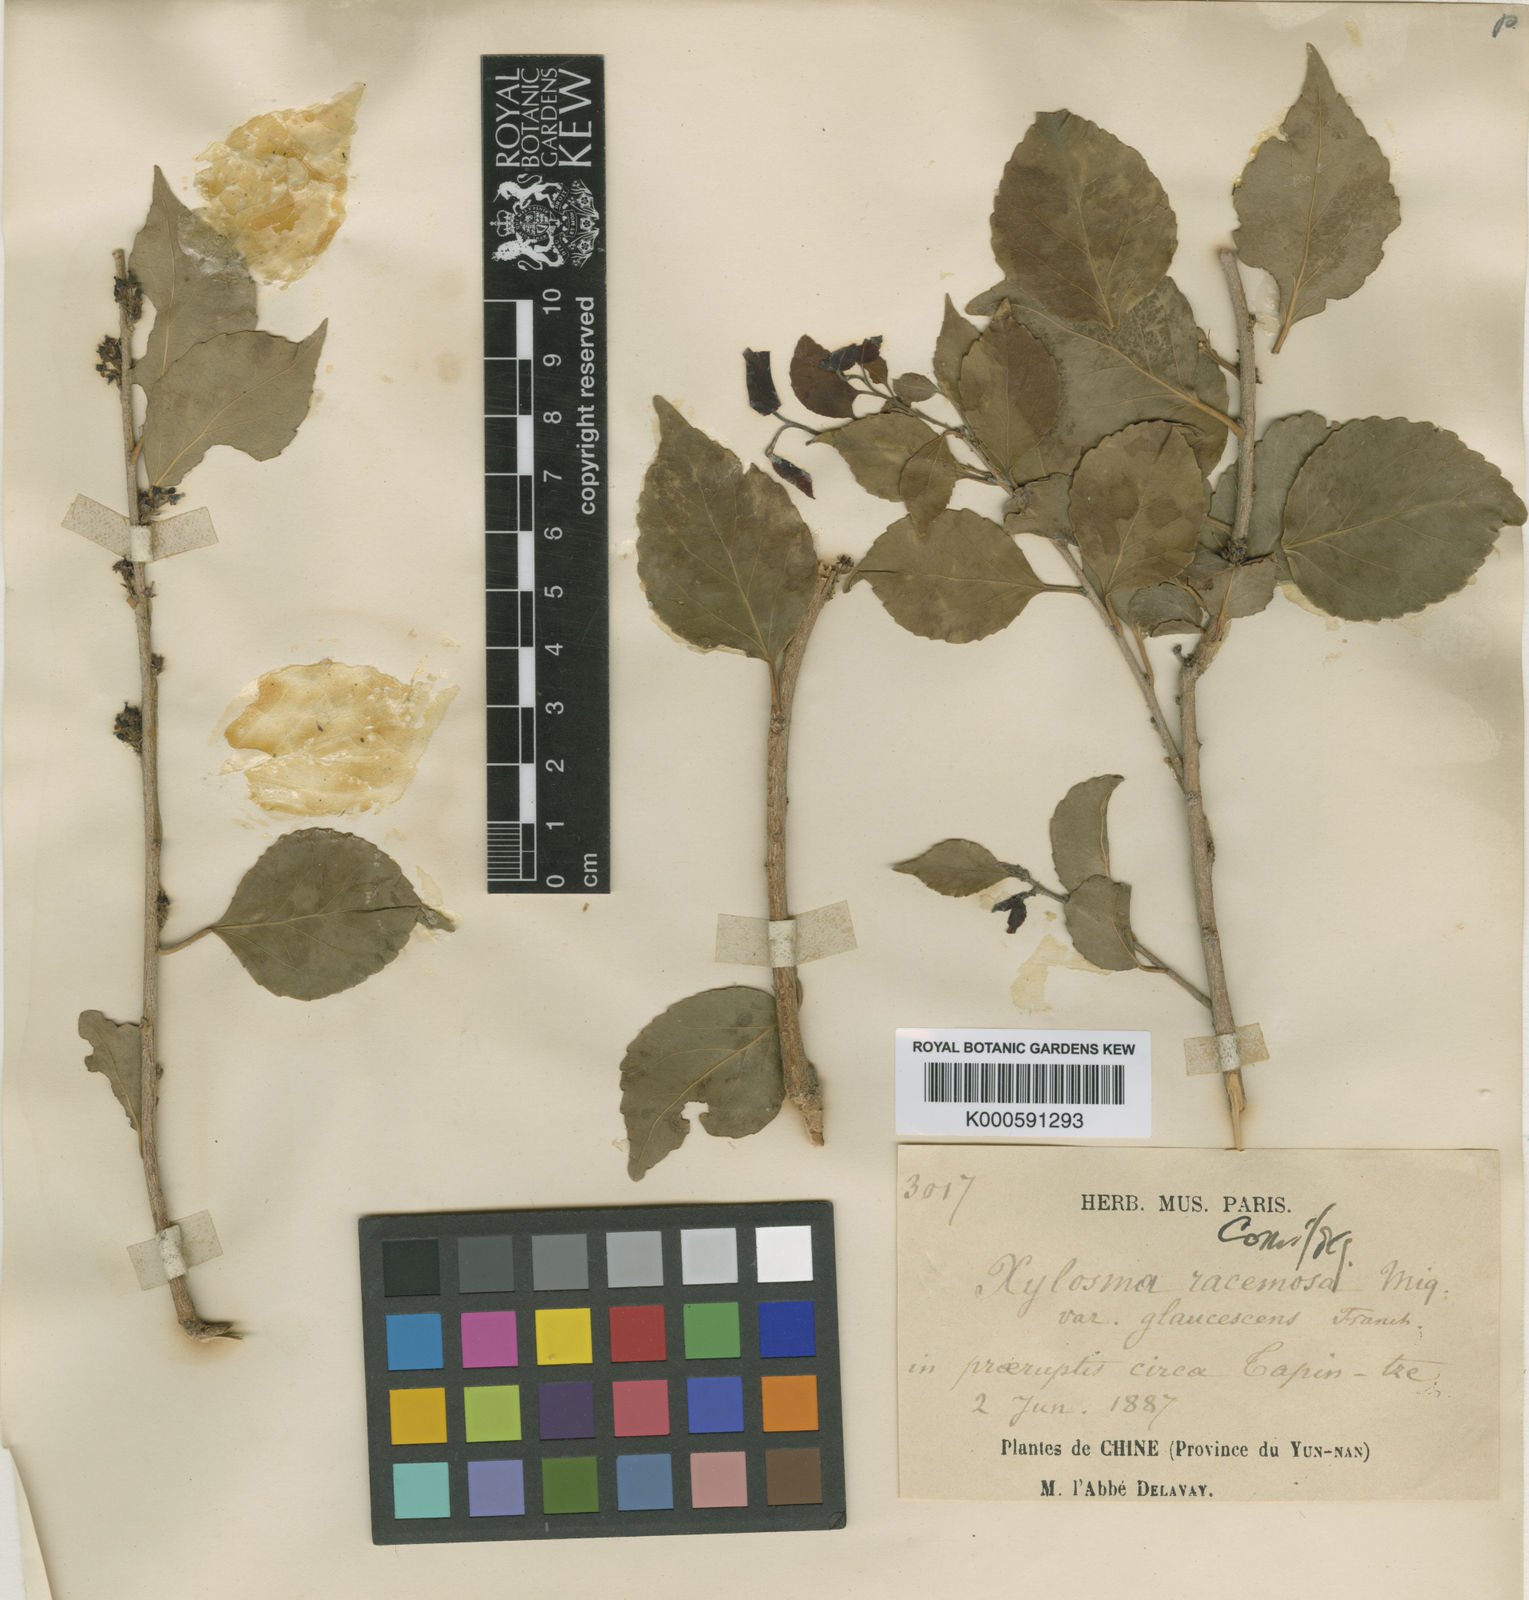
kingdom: Plantae
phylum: Tracheophyta
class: Magnoliopsida
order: Malpighiales
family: Salicaceae
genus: Xylosma
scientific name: Xylosma racemosum
